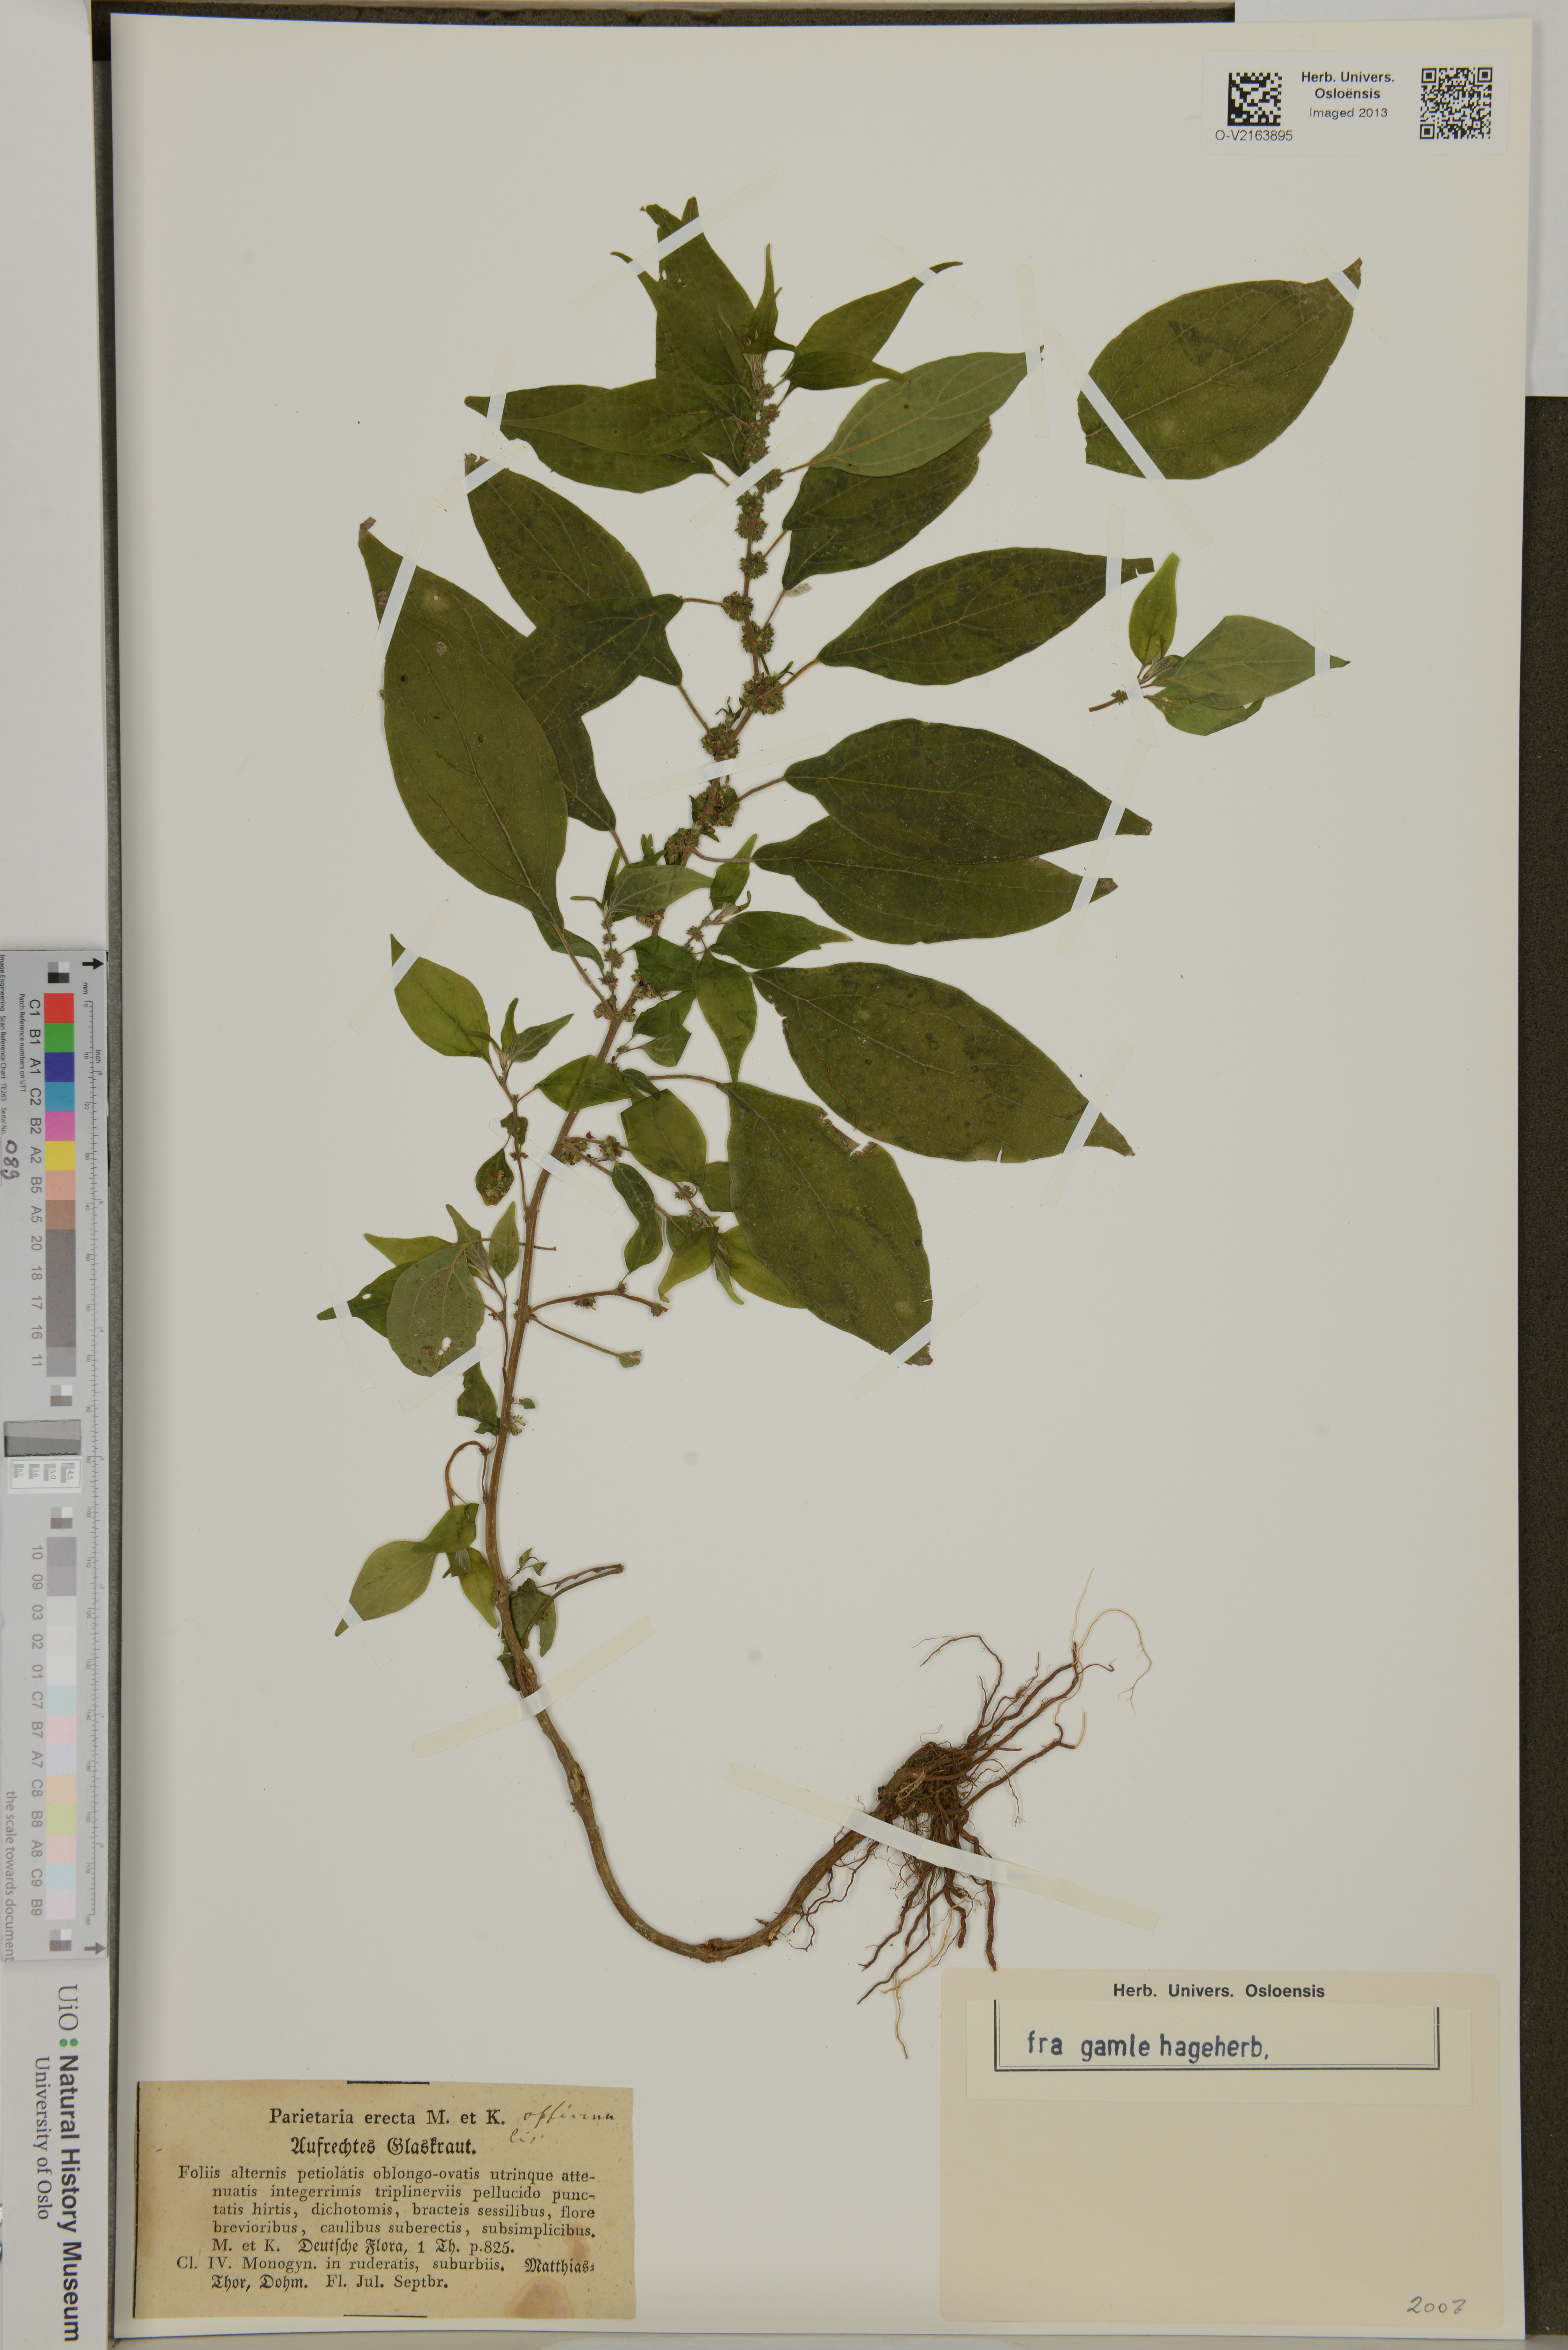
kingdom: Plantae
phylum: Tracheophyta
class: Magnoliopsida
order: Rosales
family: Urticaceae
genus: Parietaria
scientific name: Parietaria officinalis
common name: Eastern pellitory-of-the-wall
